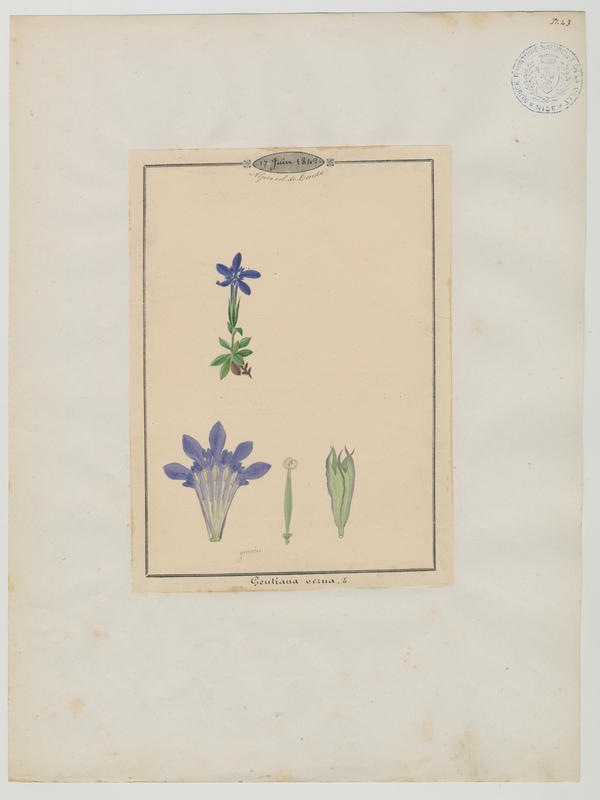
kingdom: Plantae
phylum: Tracheophyta
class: Magnoliopsida
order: Gentianales
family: Gentianaceae
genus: Gentiana
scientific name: Gentiana verna
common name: Spring gentian
